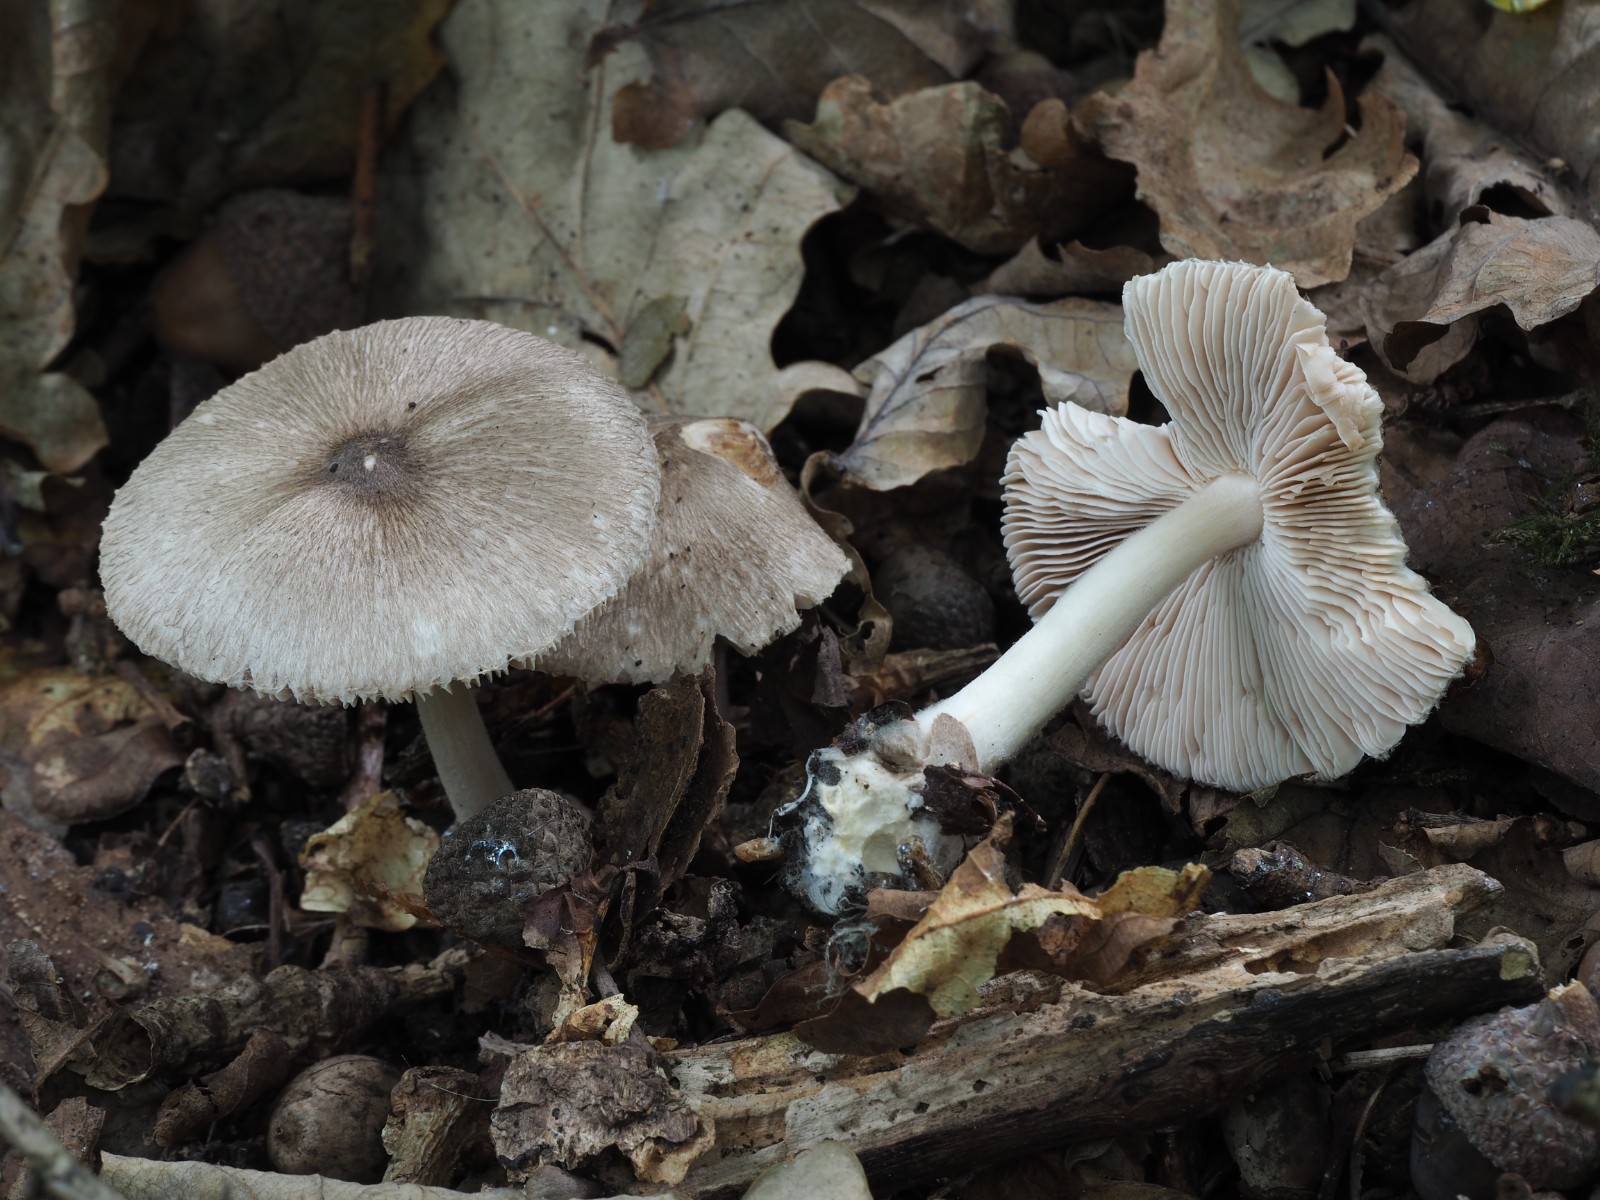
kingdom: Fungi
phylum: Basidiomycota
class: Agaricomycetes
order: Agaricales
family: Pluteaceae
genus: Volvariella
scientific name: Volvariella
